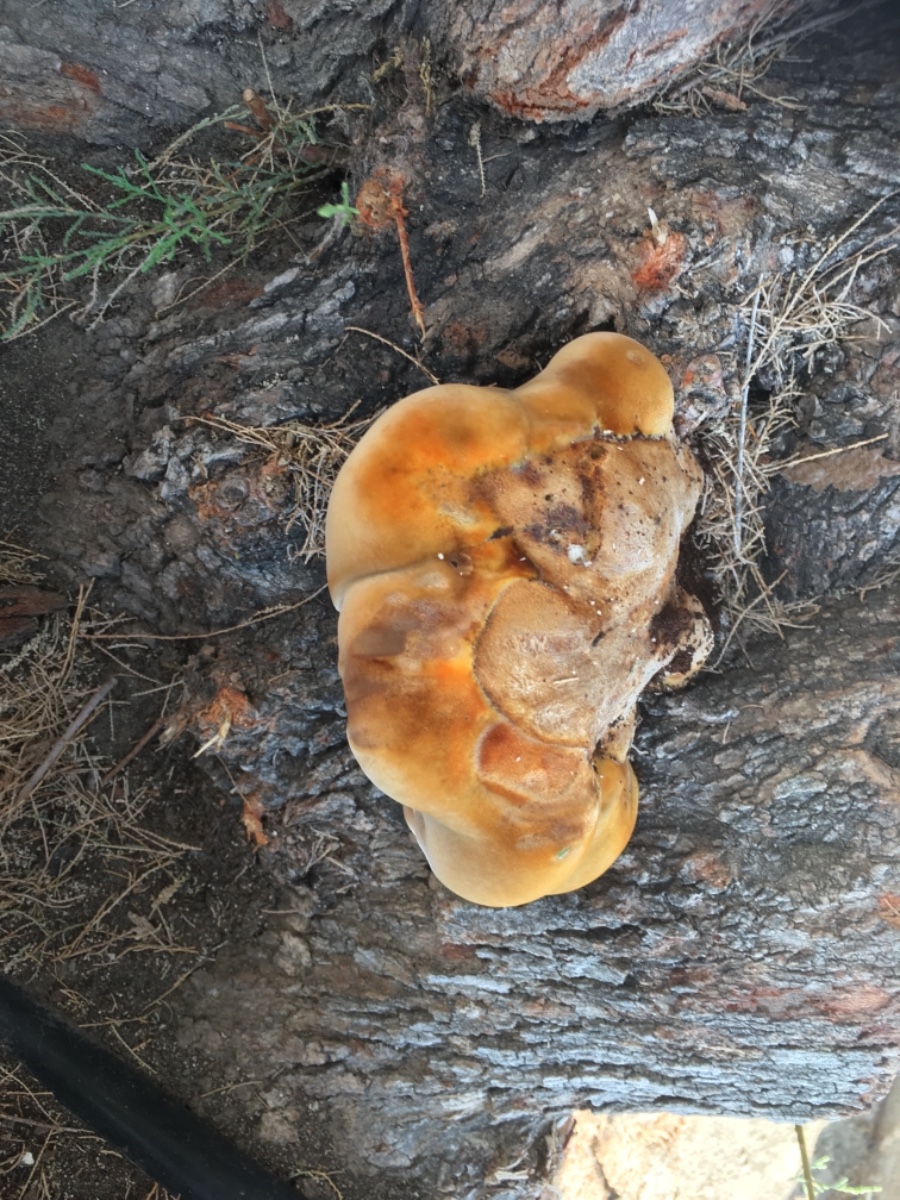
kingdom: Fungi
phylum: Basidiomycota
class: Agaricomycetes
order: Hymenochaetales
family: Hymenochaetaceae
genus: Inocutis
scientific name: Inocutis tamaricis
